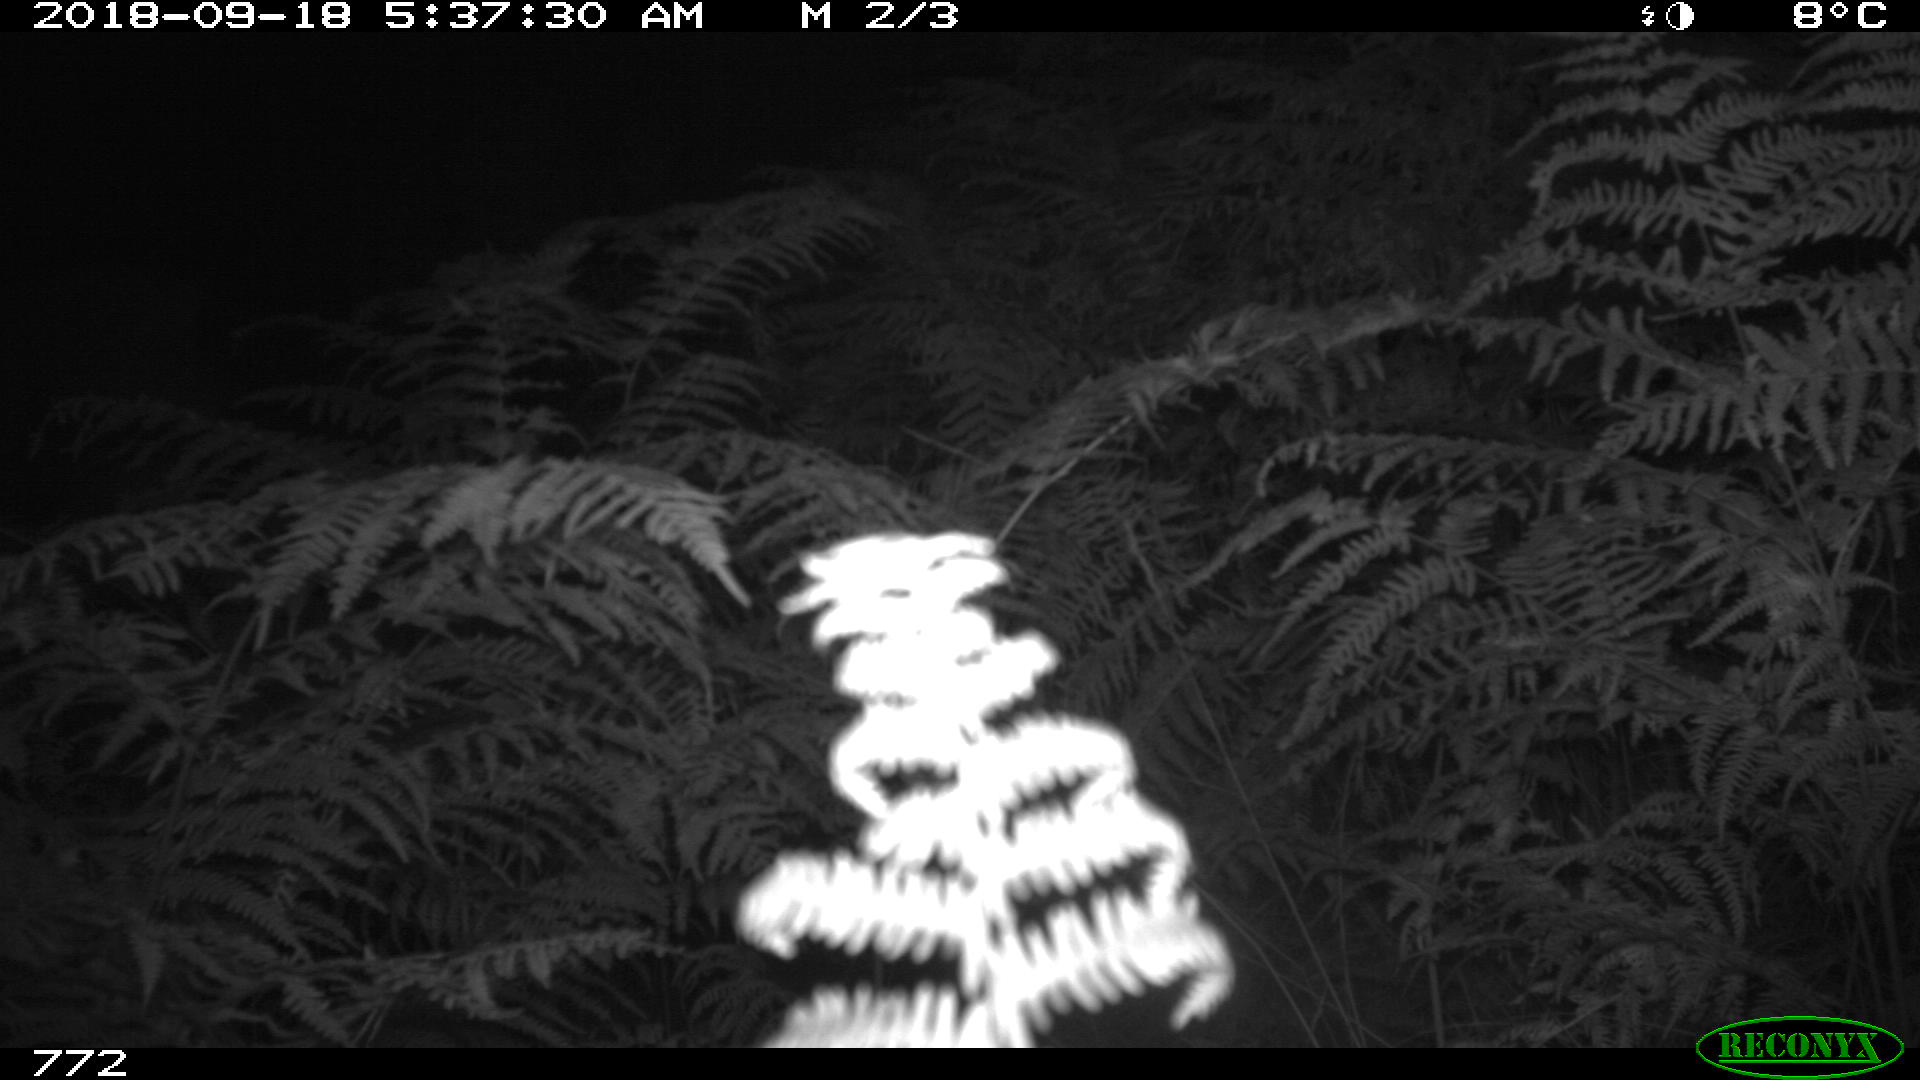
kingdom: Animalia
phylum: Chordata
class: Mammalia
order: Perissodactyla
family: Equidae
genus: Equus
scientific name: Equus caballus
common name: Horse
